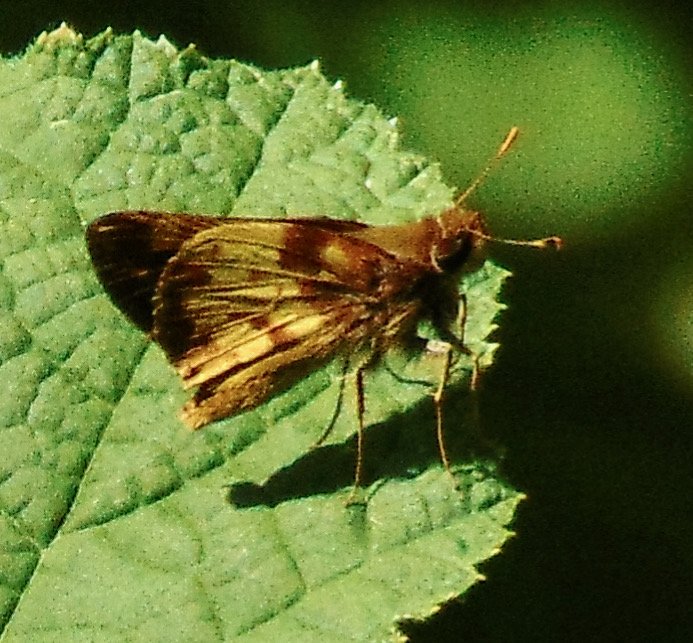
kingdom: Animalia
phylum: Arthropoda
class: Insecta
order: Lepidoptera
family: Hesperiidae
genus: Lon
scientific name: Lon zabulon
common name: Zabulon Skipper
